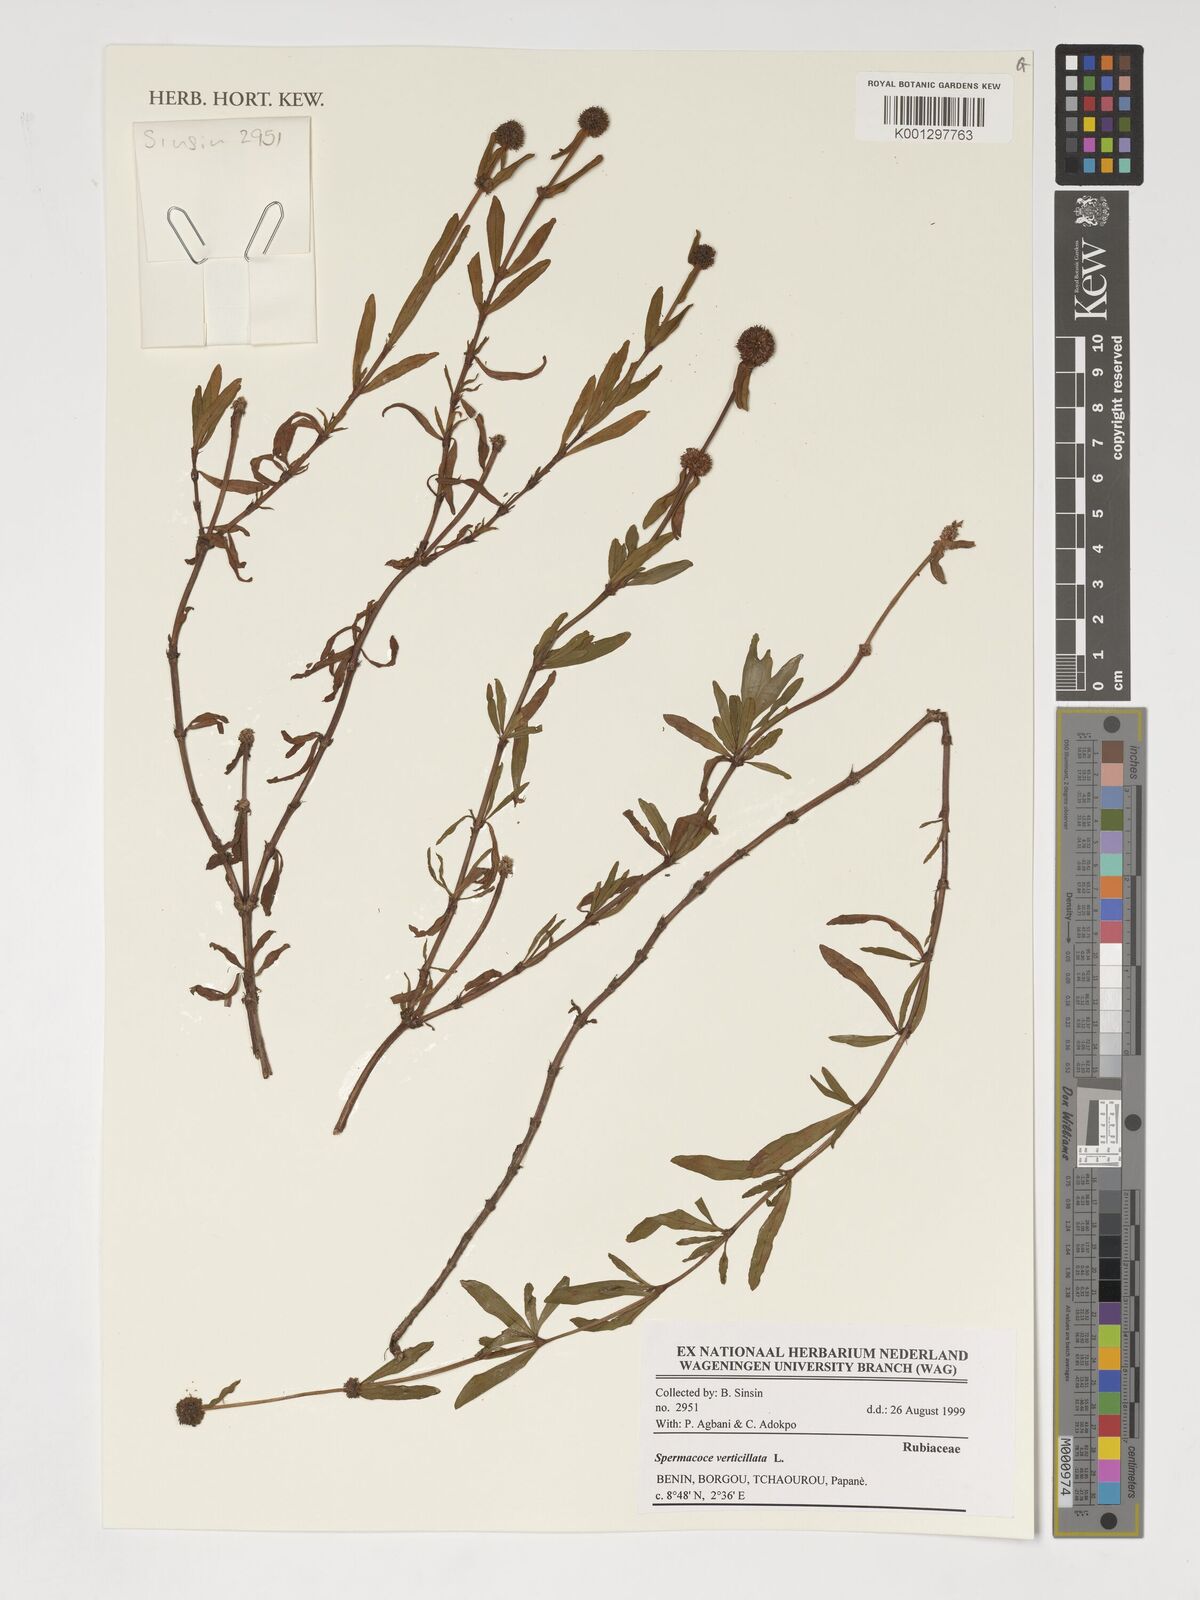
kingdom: Plantae
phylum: Tracheophyta
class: Magnoliopsida
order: Gentianales
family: Rubiaceae
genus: Spermacoce
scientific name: Spermacoce verticillata
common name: Shrubby false buttonweed
